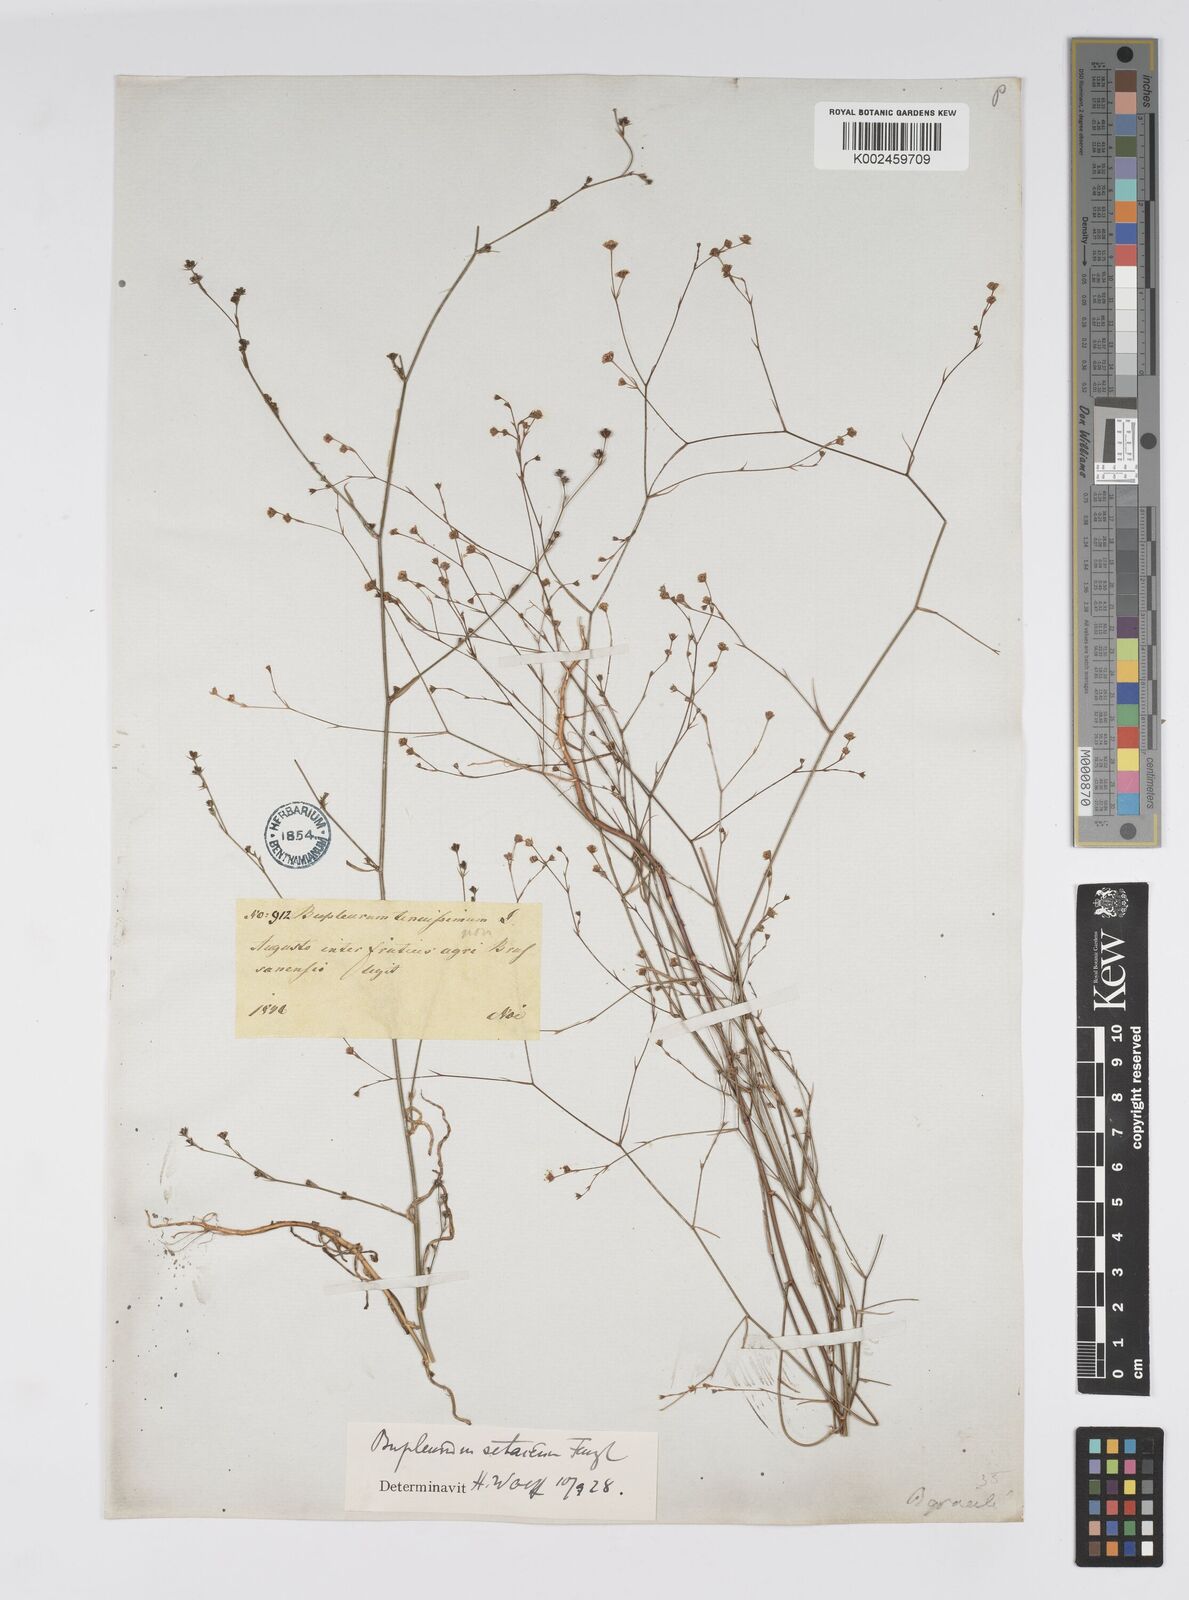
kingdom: Plantae
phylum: Tracheophyta
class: Magnoliopsida
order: Apiales
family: Apiaceae
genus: Bupleurum
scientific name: Bupleurum setaceum
